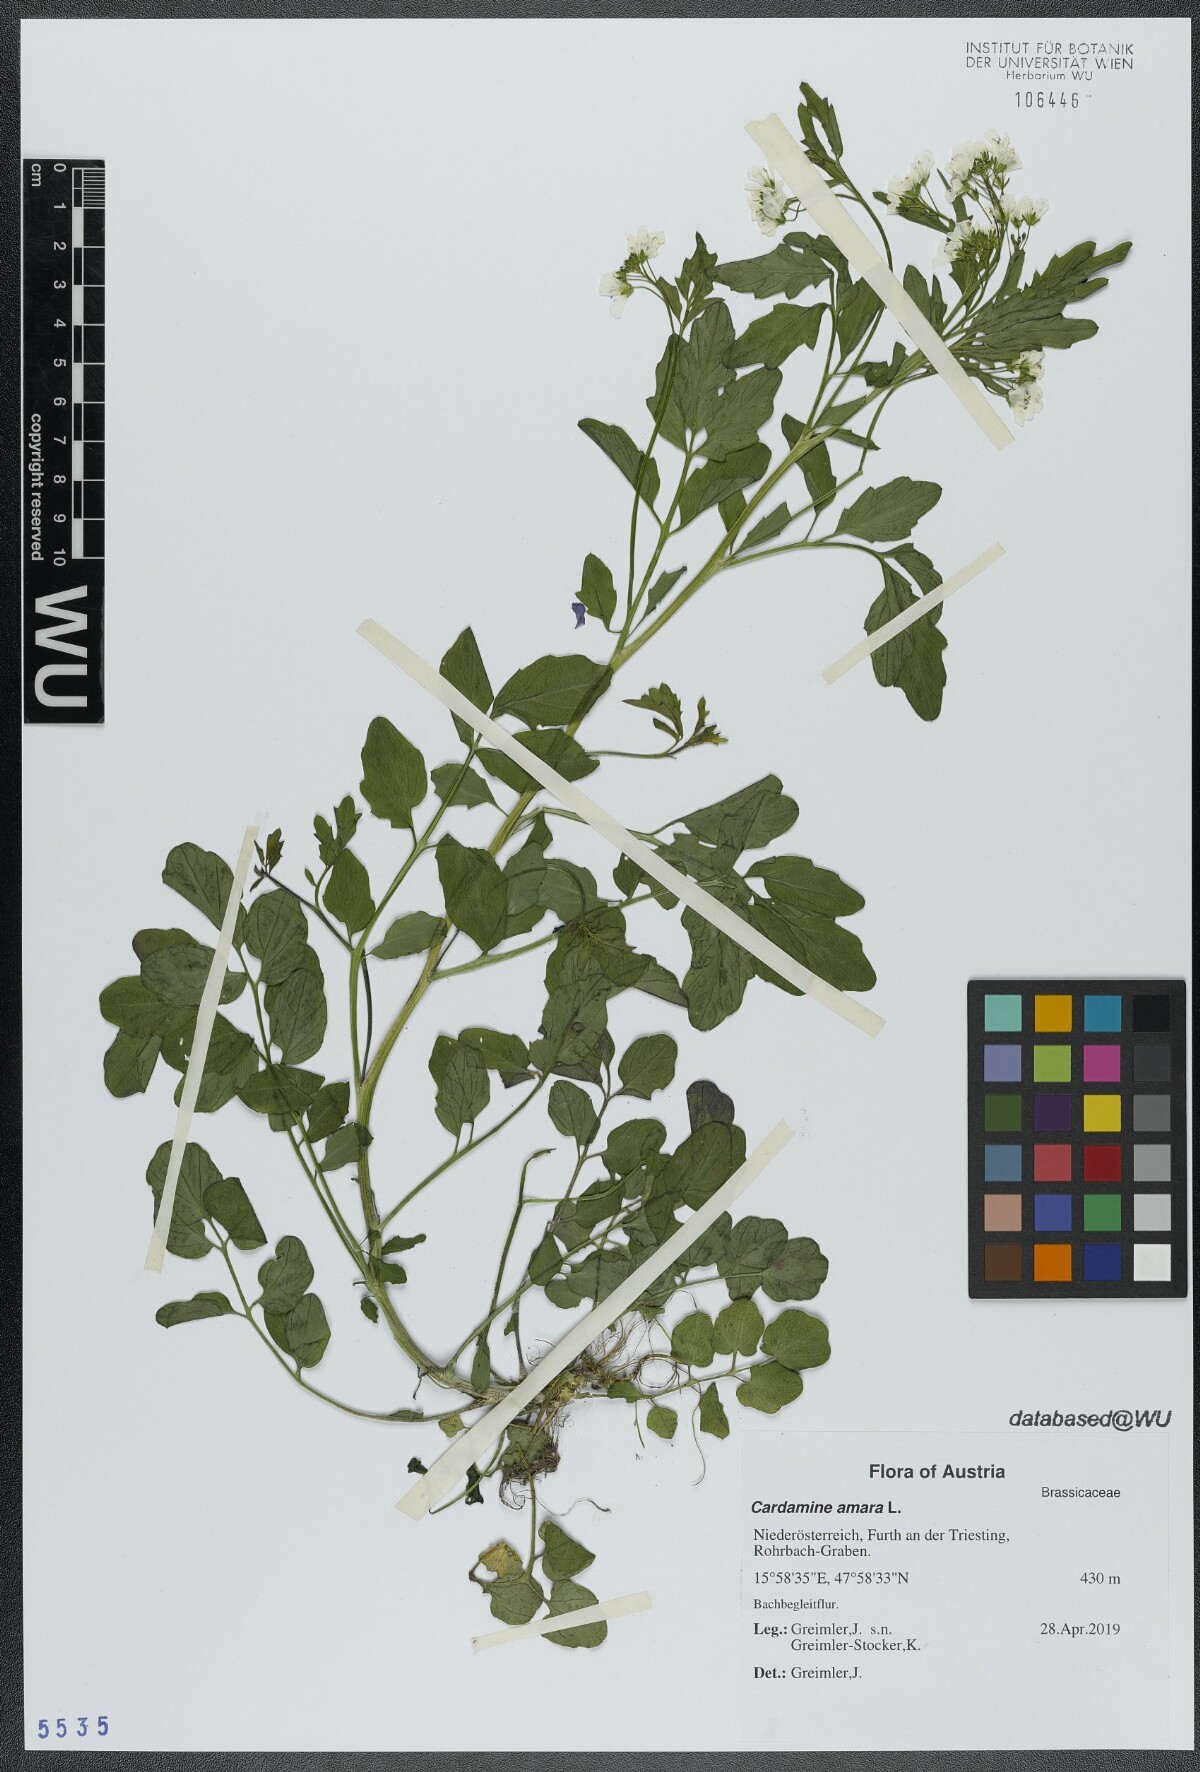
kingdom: Plantae
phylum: Tracheophyta
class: Magnoliopsida
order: Brassicales
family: Brassicaceae
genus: Cardamine
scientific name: Cardamine amara
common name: Large bitter-cress
